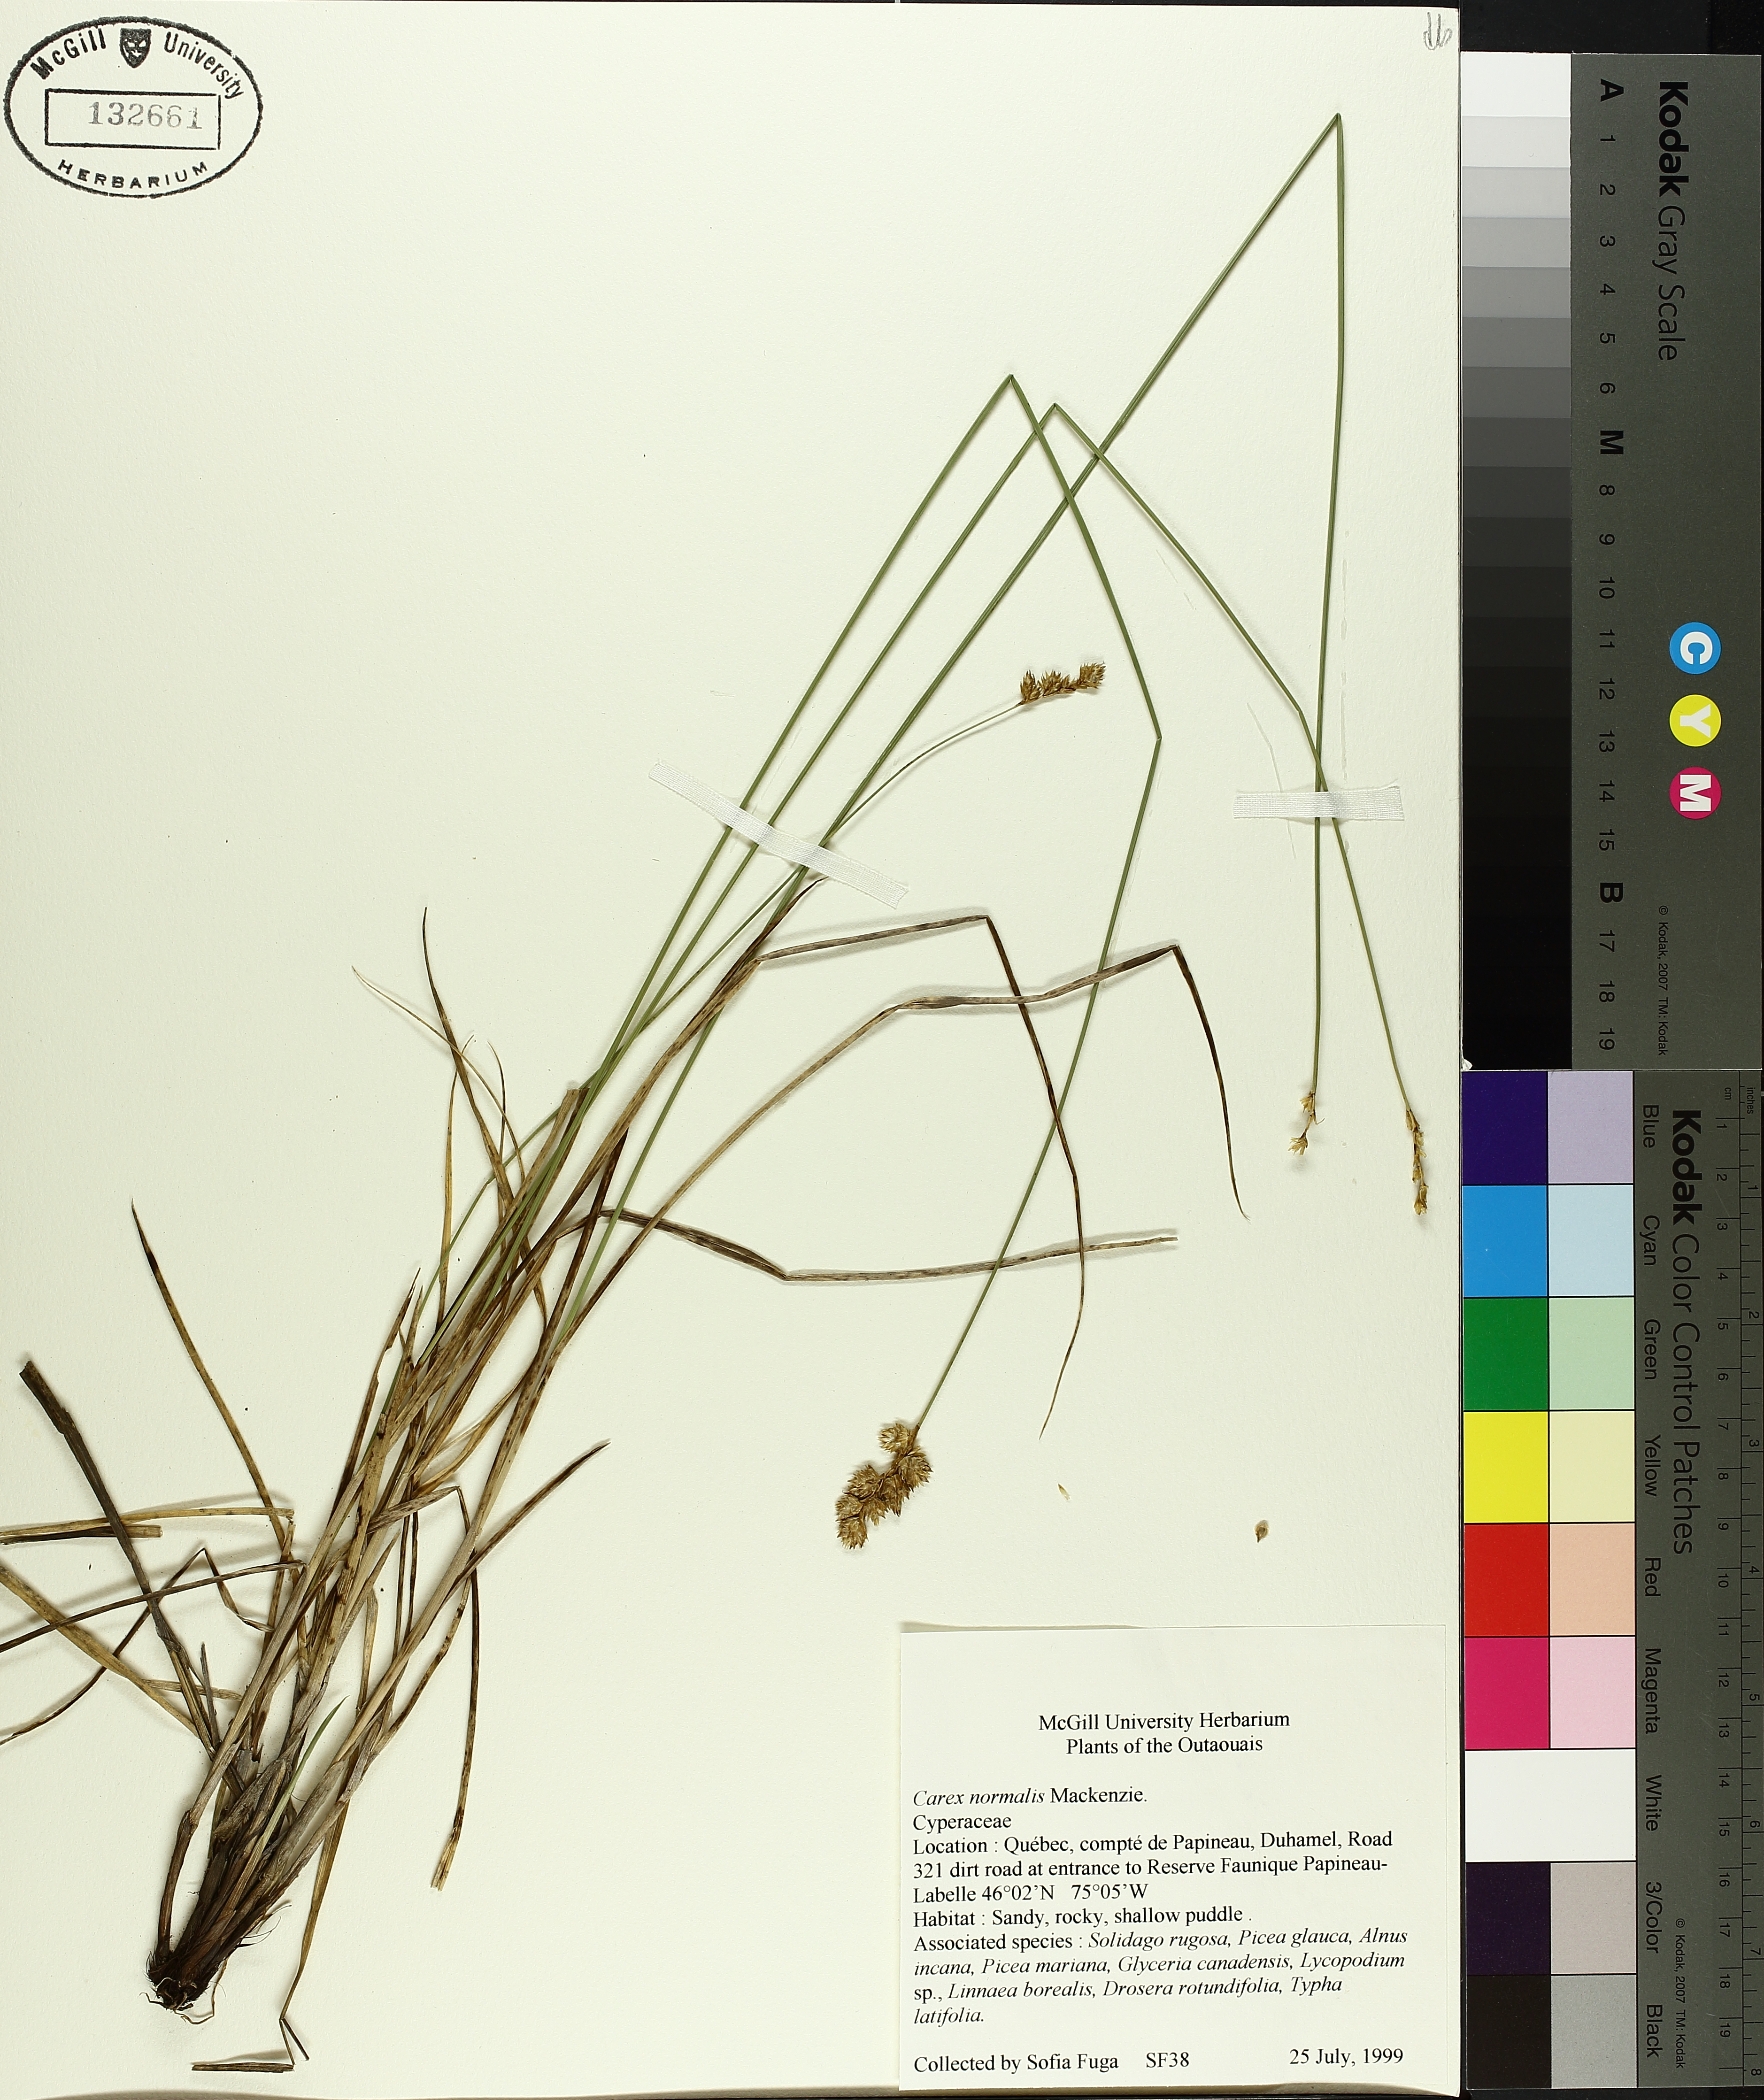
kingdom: Plantae
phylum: Tracheophyta
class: Liliopsida
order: Poales
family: Cyperaceae
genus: Carex
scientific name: Carex normalis
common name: Greater straw sedge
